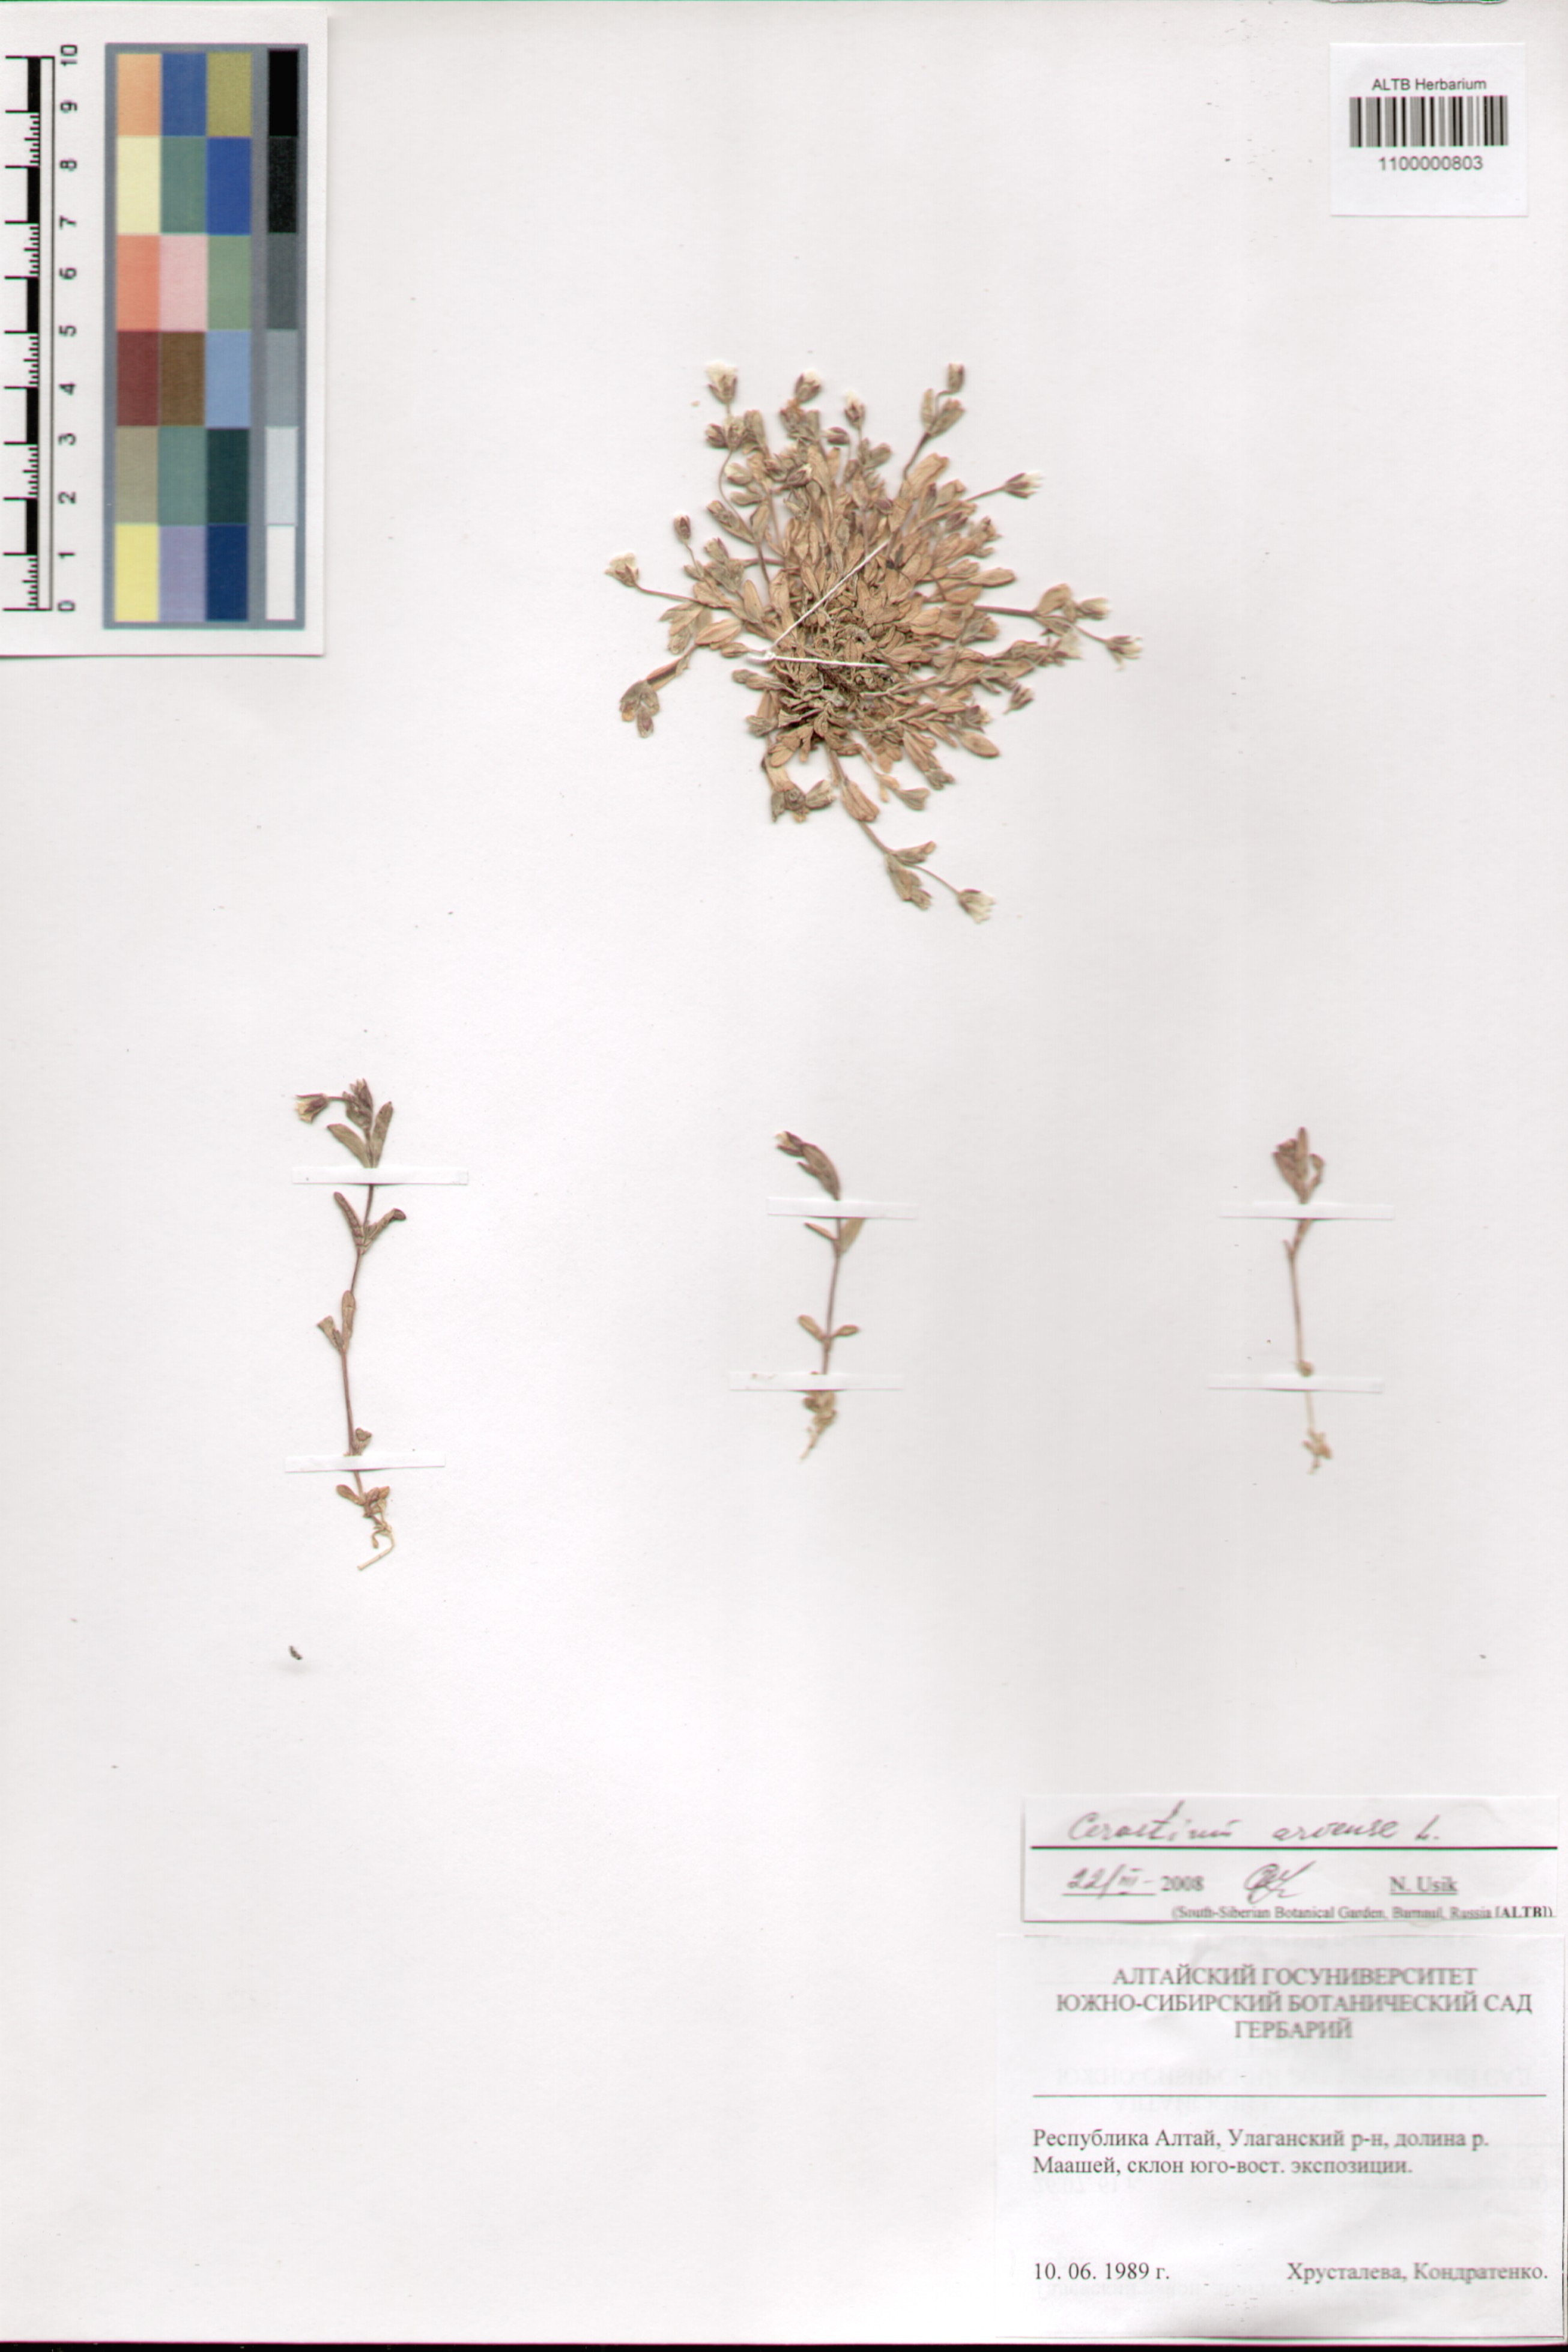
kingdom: Plantae
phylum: Tracheophyta
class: Magnoliopsida
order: Caryophyllales
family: Caryophyllaceae
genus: Cerastium
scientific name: Cerastium arvense
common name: Field mouse-ear
